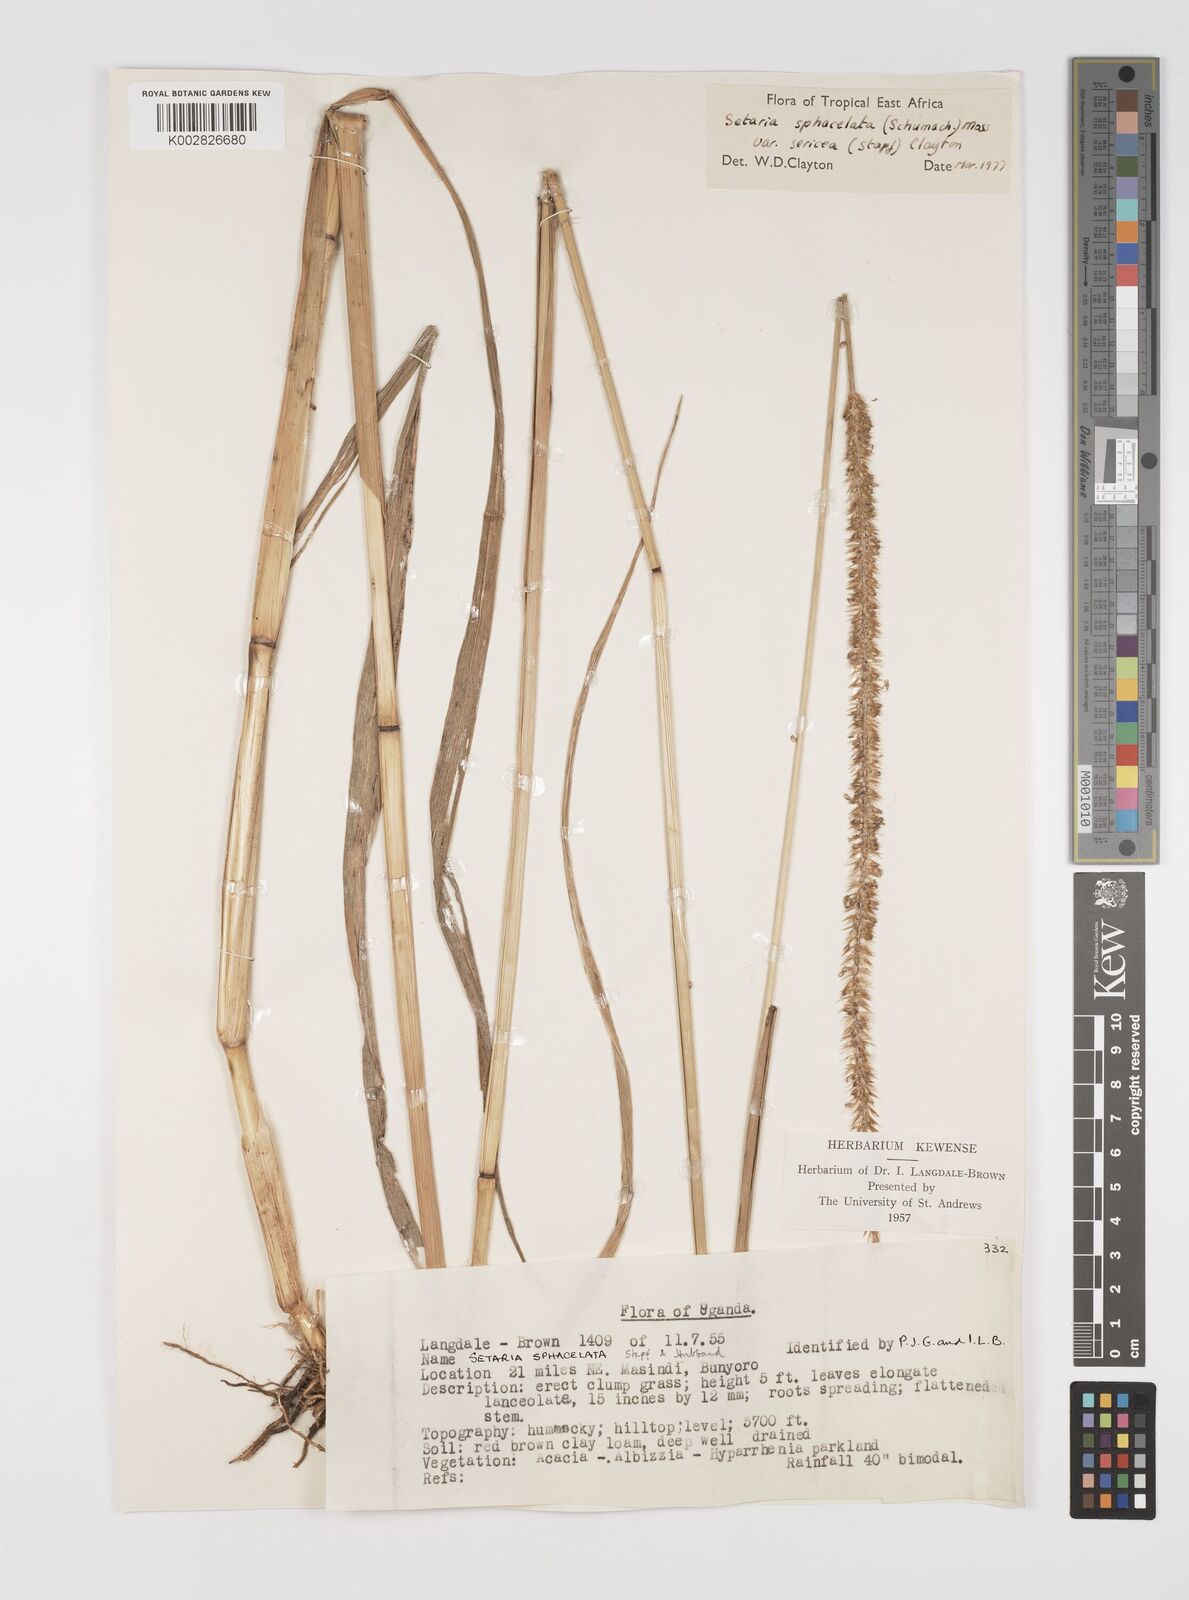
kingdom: Plantae
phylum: Tracheophyta
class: Liliopsida
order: Poales
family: Poaceae
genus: Setaria
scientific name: Setaria sphacelata
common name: African bristlegrass
